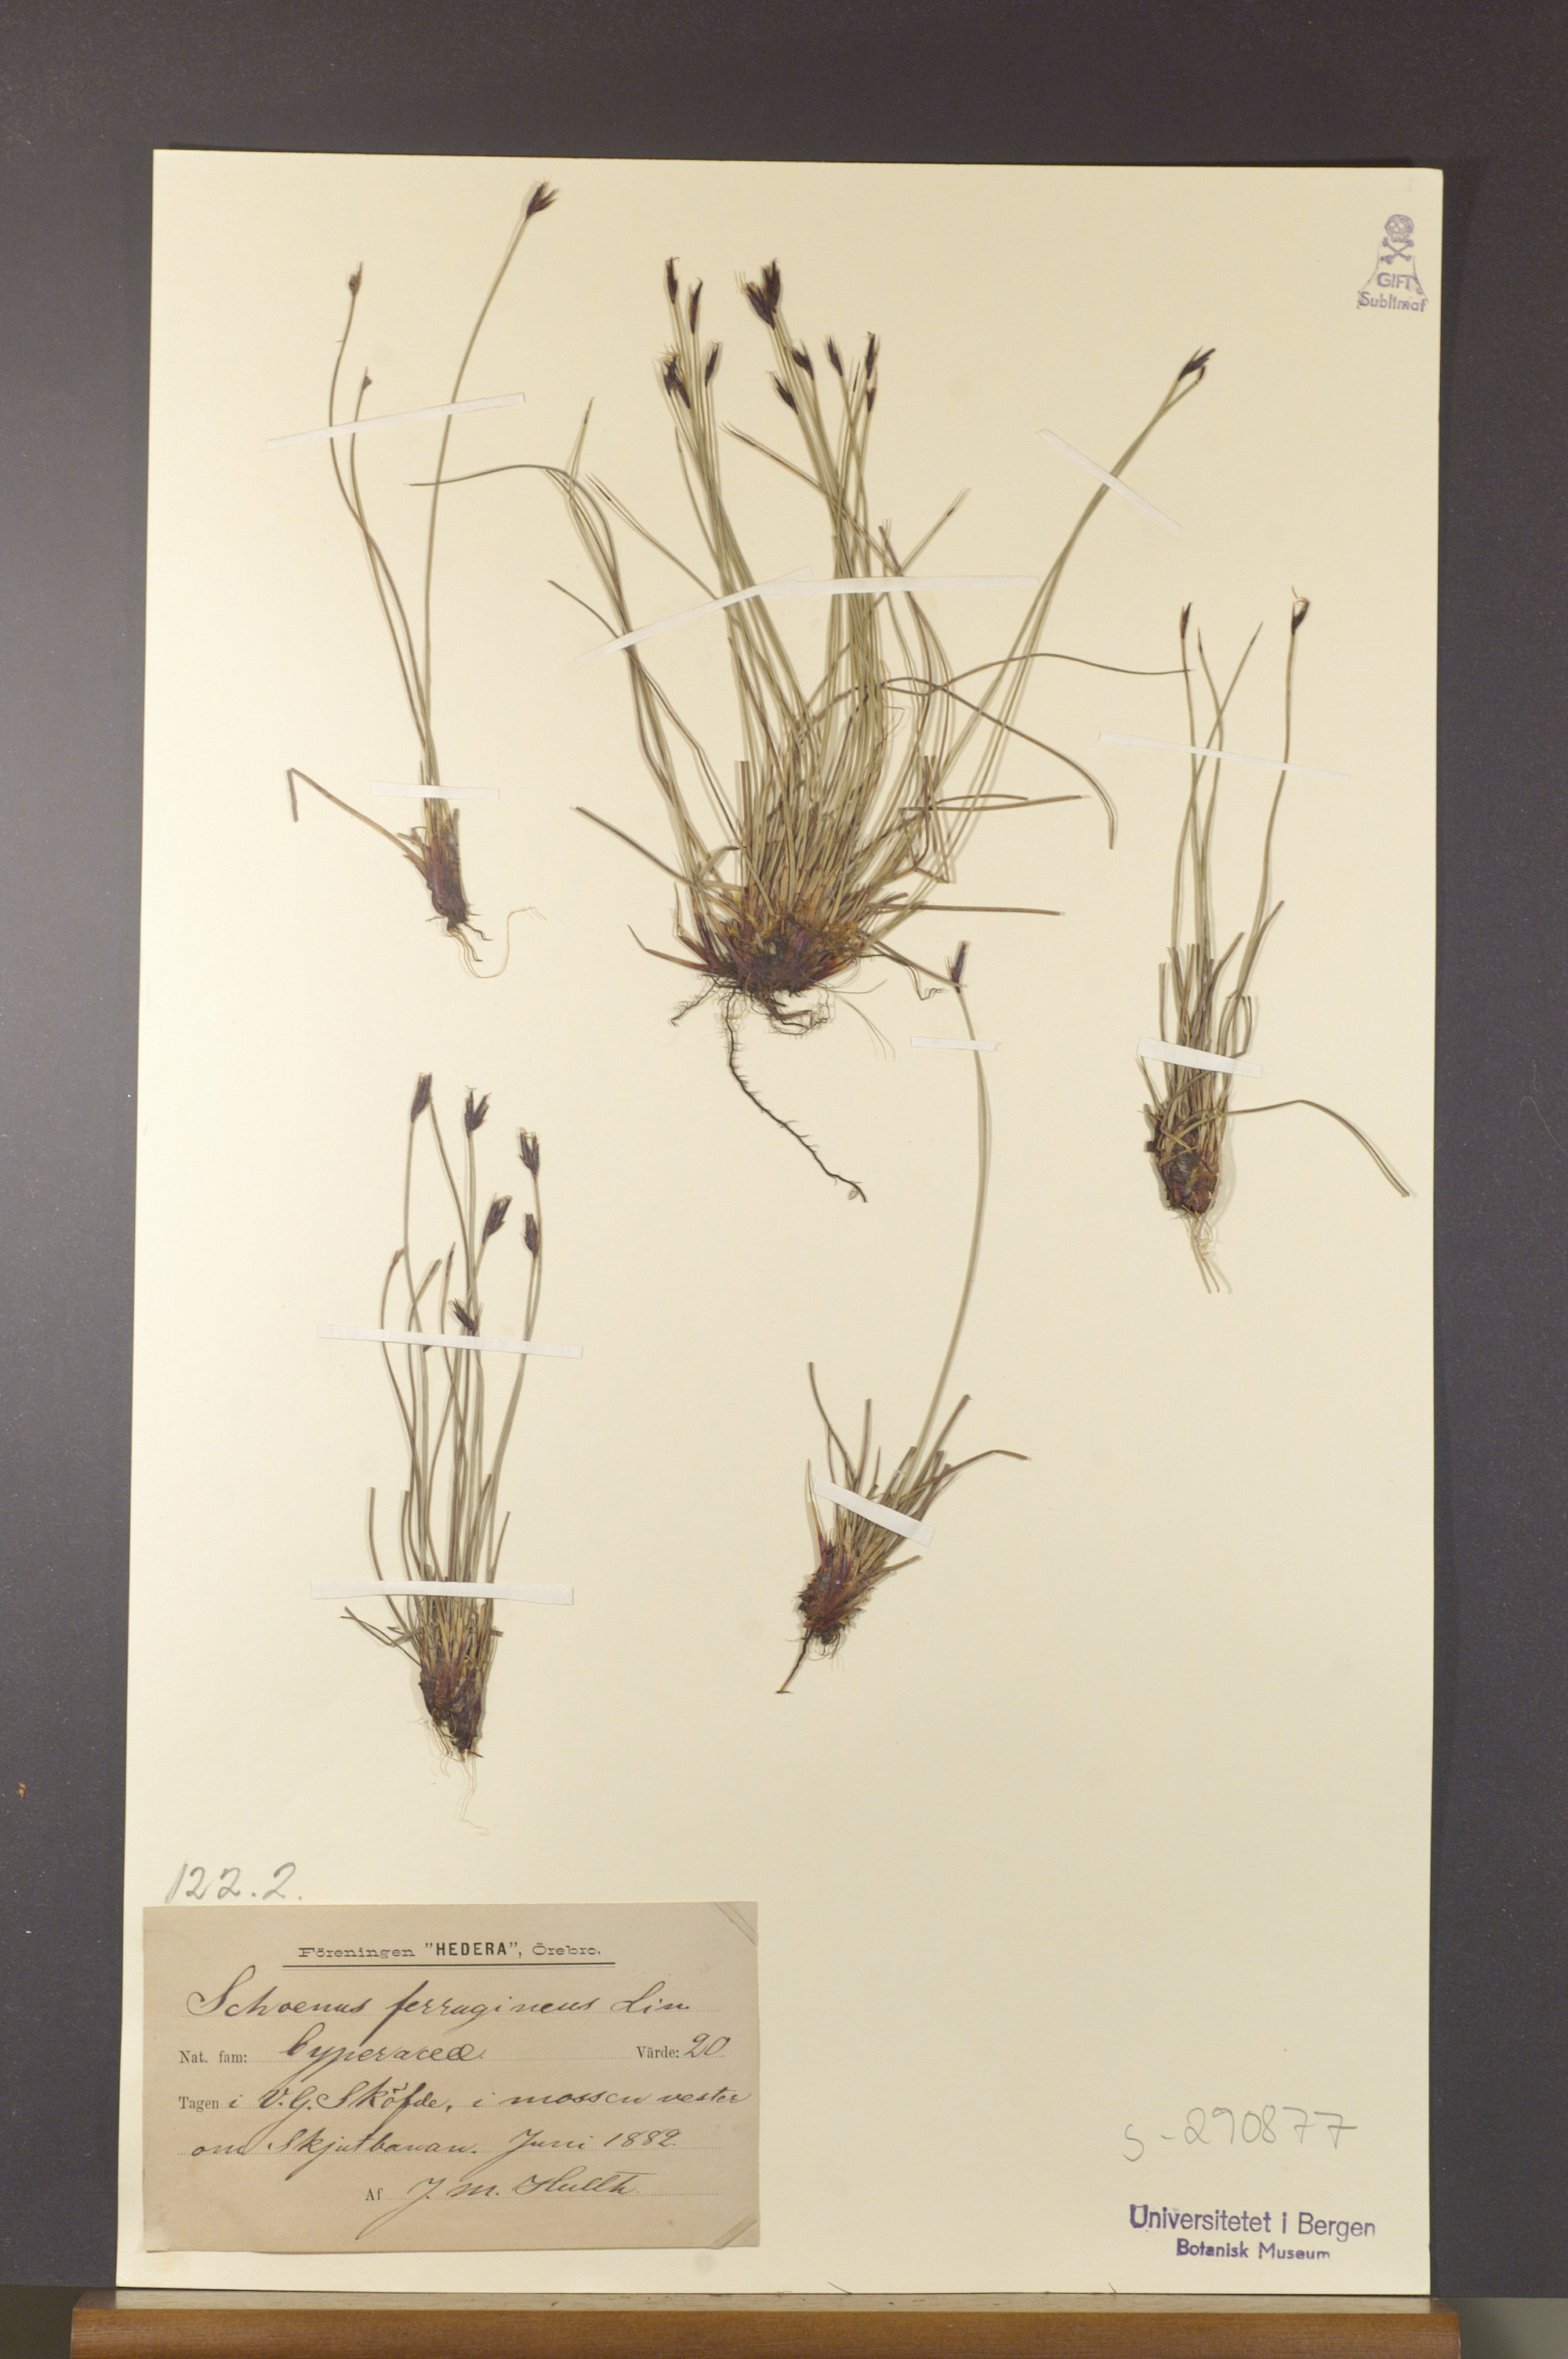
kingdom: Plantae
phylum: Tracheophyta
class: Liliopsida
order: Poales
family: Cyperaceae
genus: Schoenus
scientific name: Schoenus ferrugineus
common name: Brown bog-rush
